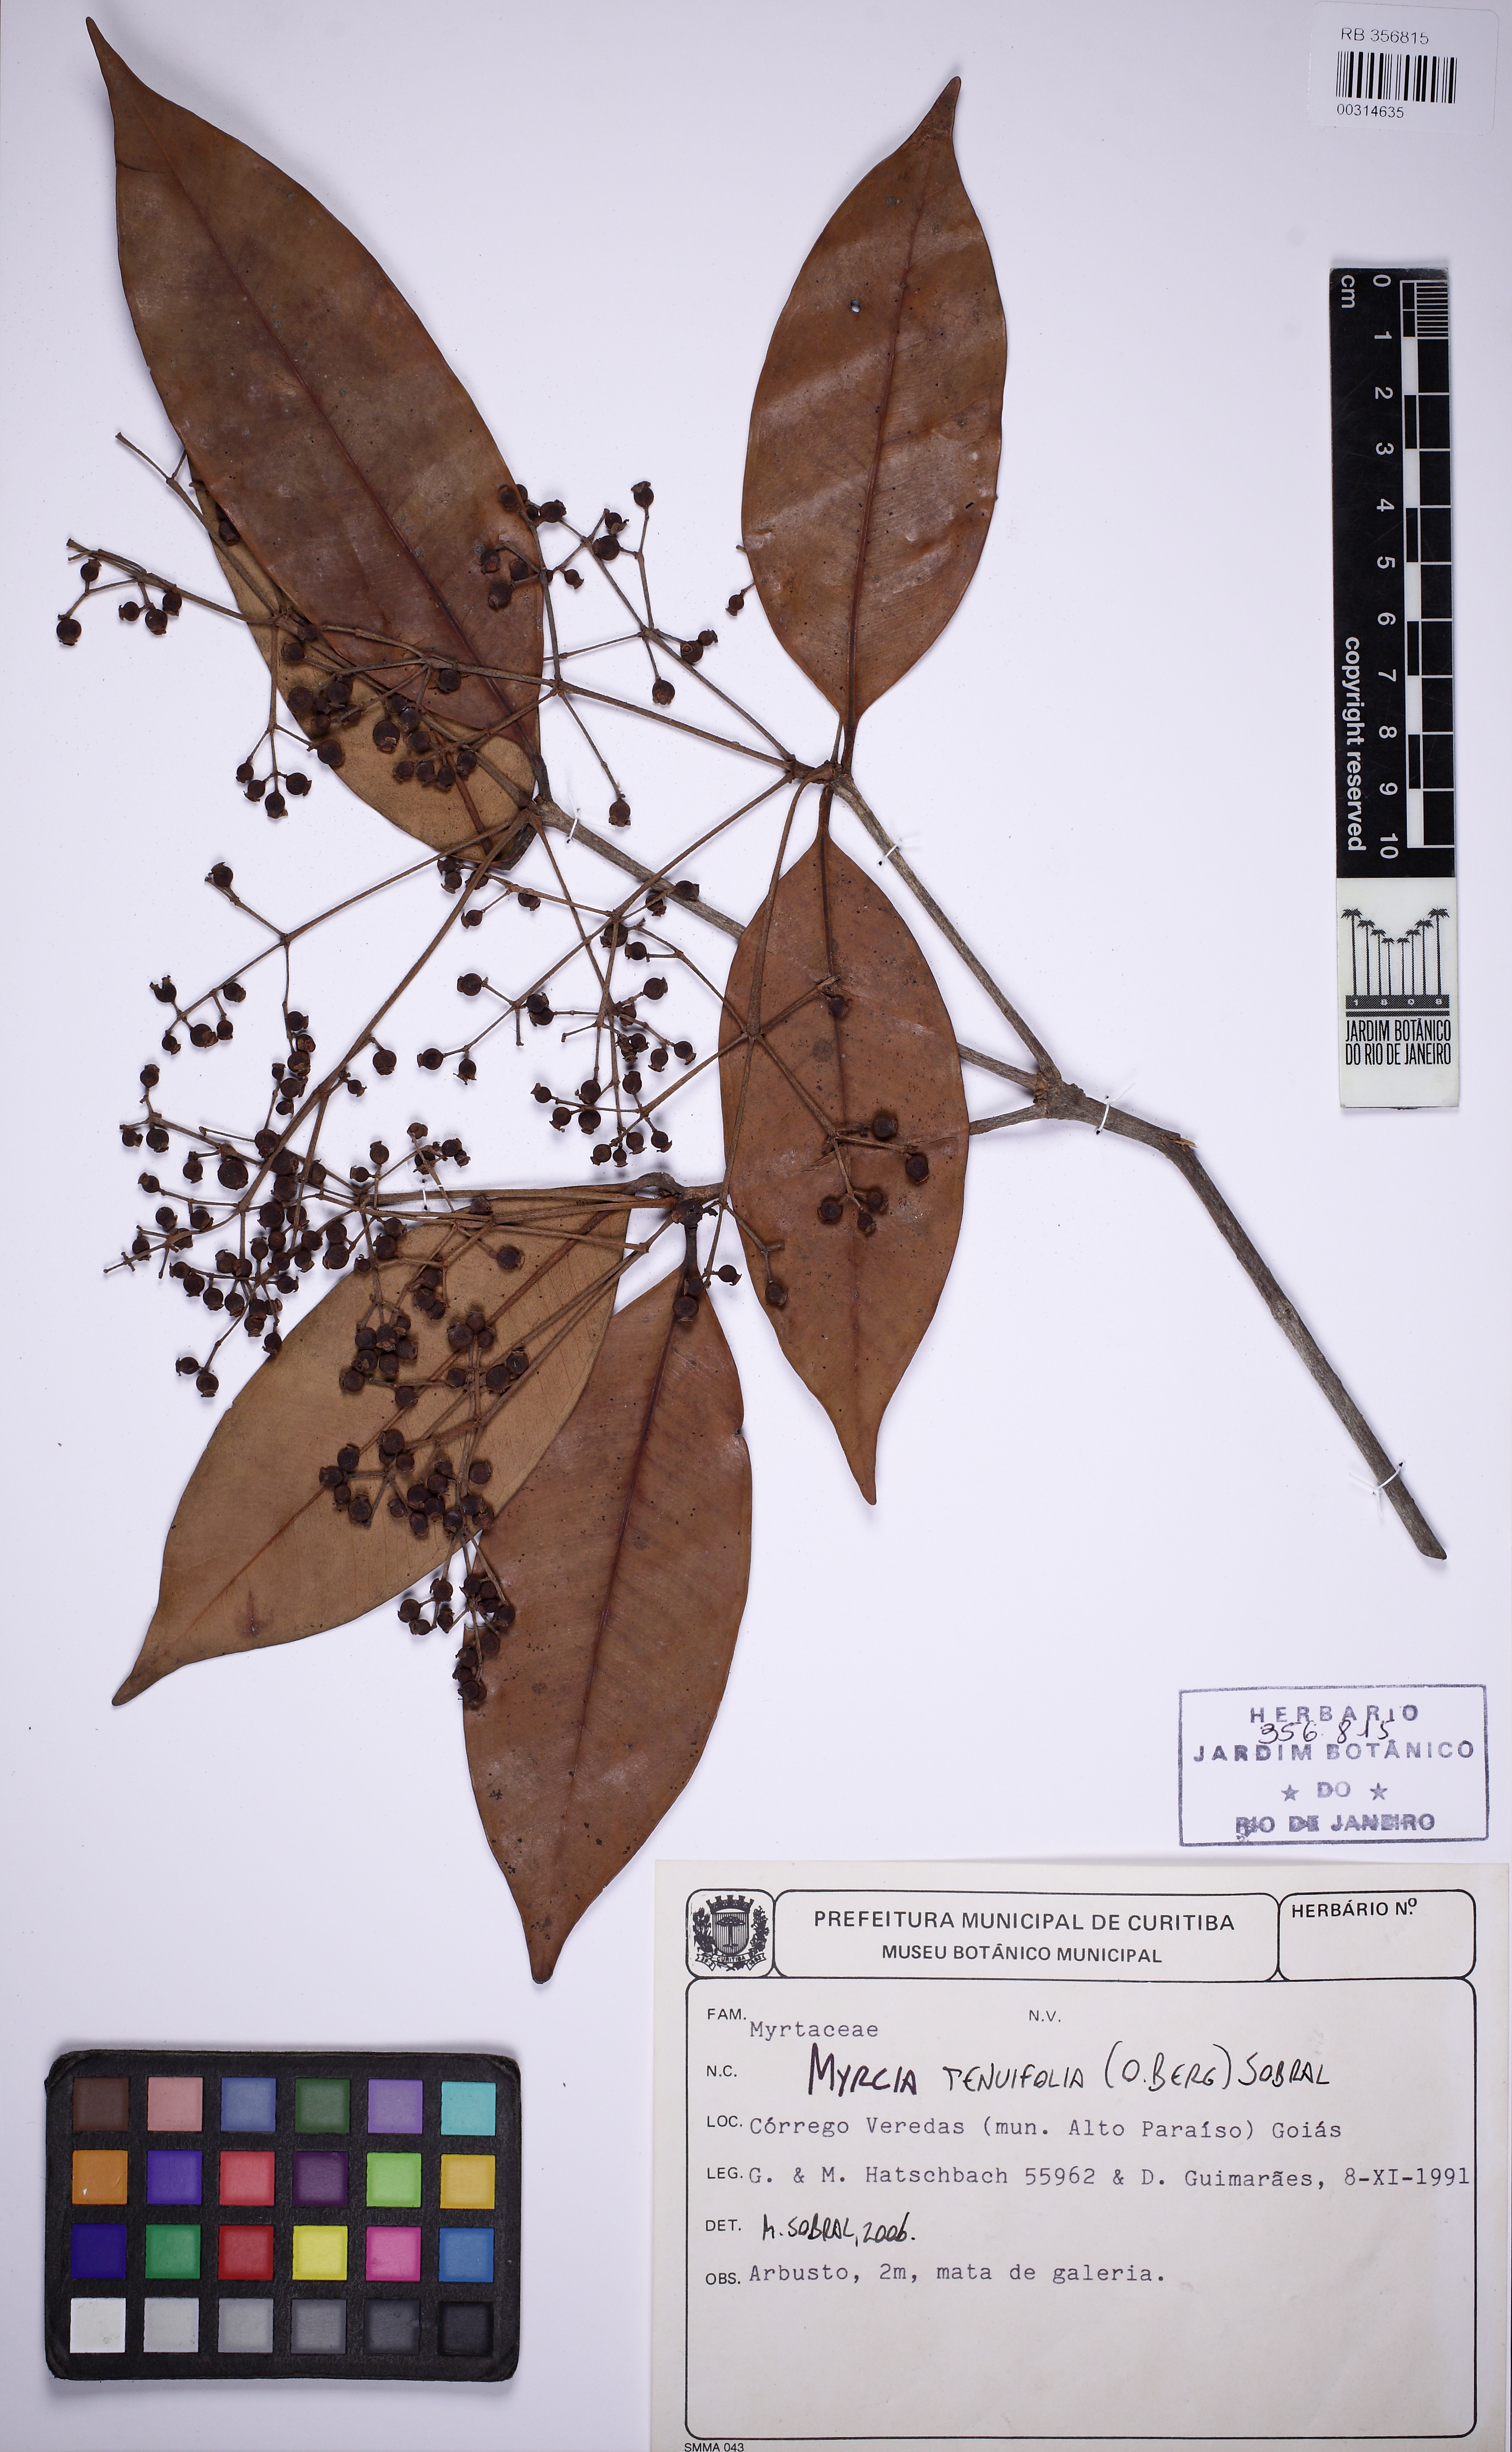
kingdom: Plantae
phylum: Tracheophyta
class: Magnoliopsida
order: Myrtales
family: Myrtaceae
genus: Myrcia
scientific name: Myrcia tenuifolia
